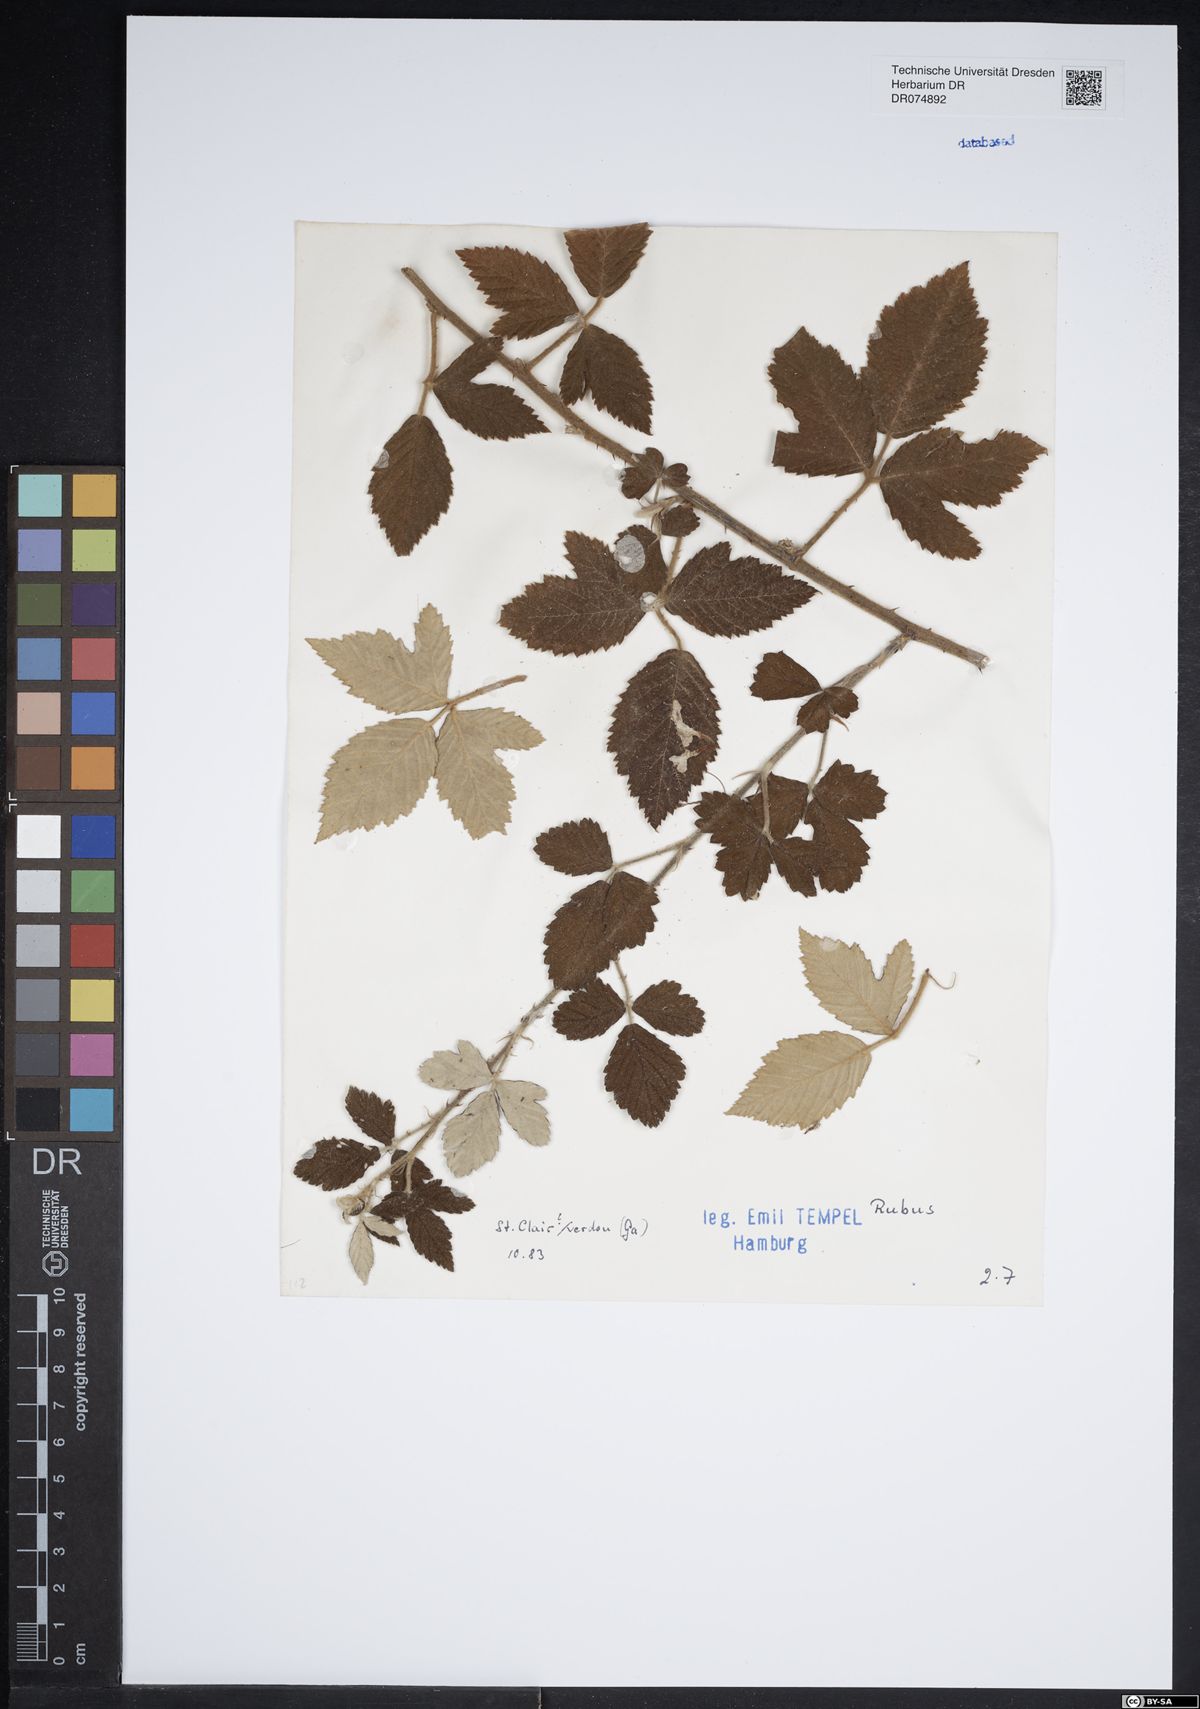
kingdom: Plantae
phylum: Tracheophyta
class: Magnoliopsida
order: Rosales
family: Rosaceae
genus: Rubus
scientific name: Rubus
